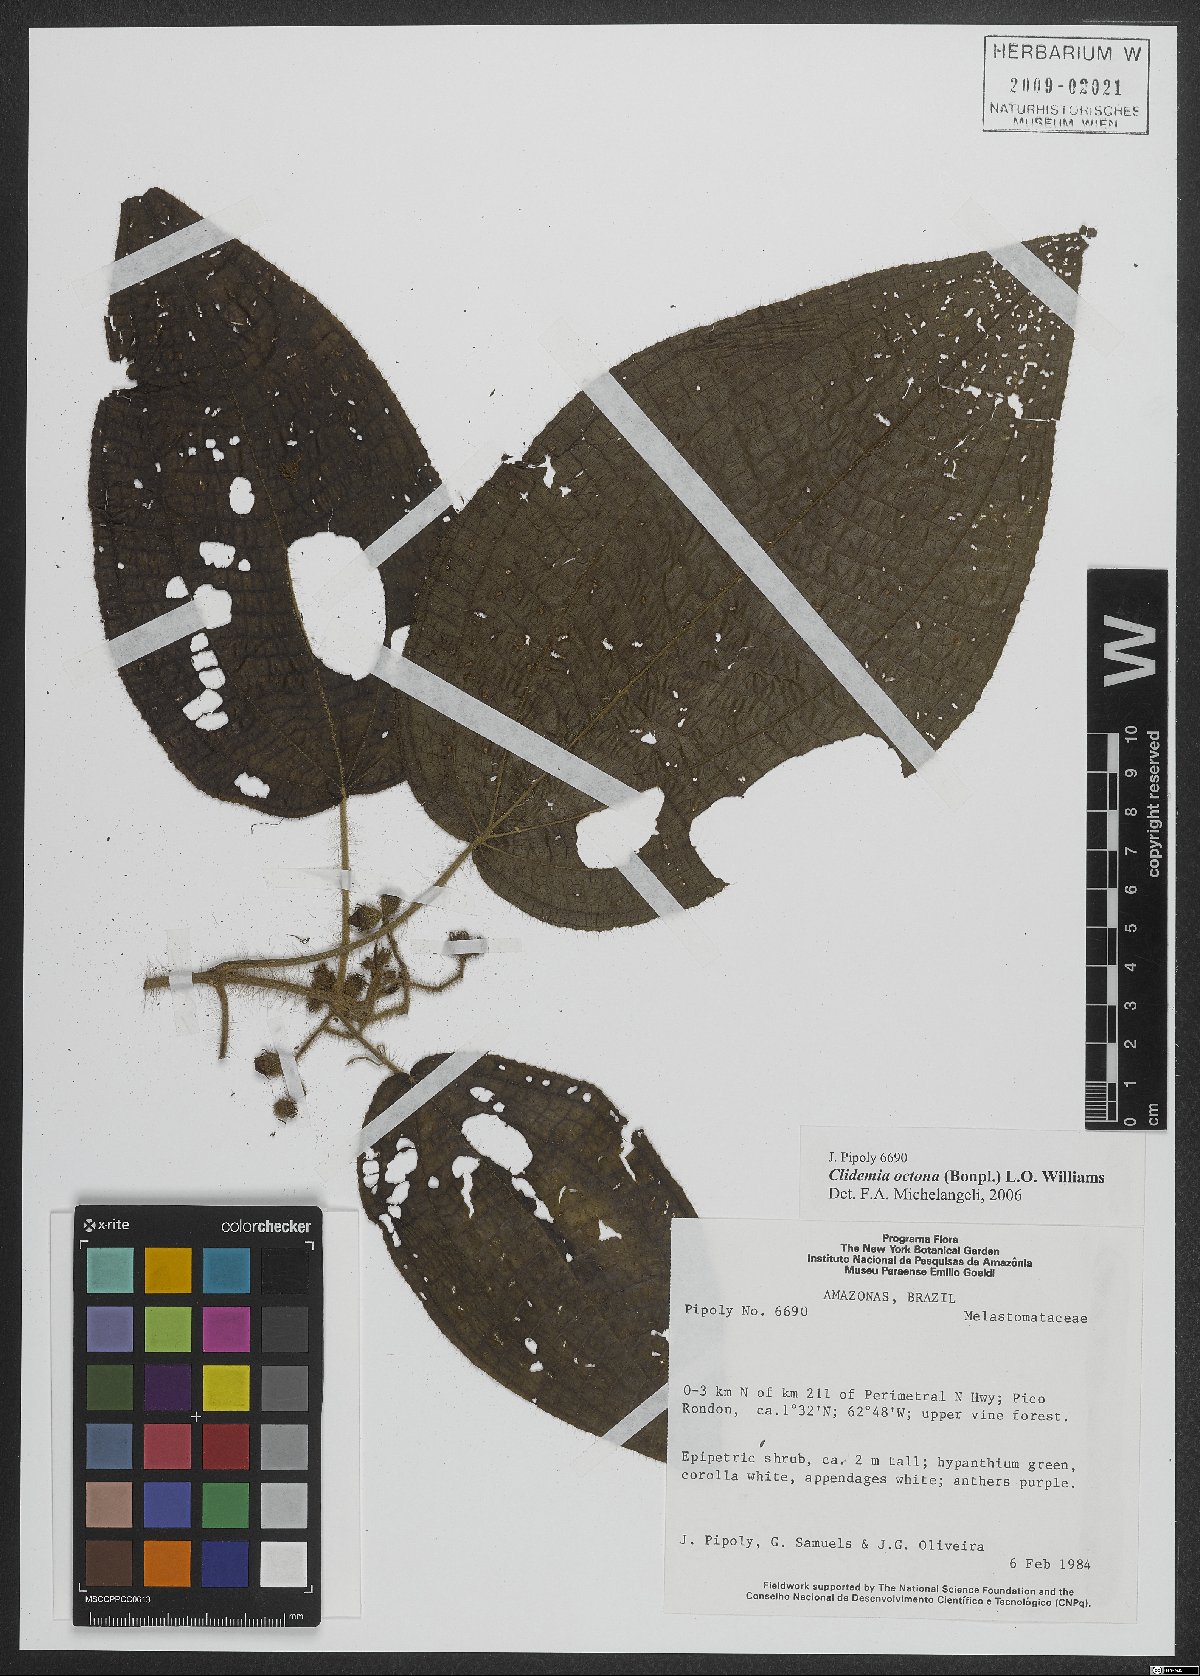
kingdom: Plantae
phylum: Tracheophyta
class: Magnoliopsida
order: Myrtales
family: Melastomataceae
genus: Miconia
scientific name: Miconia octona
